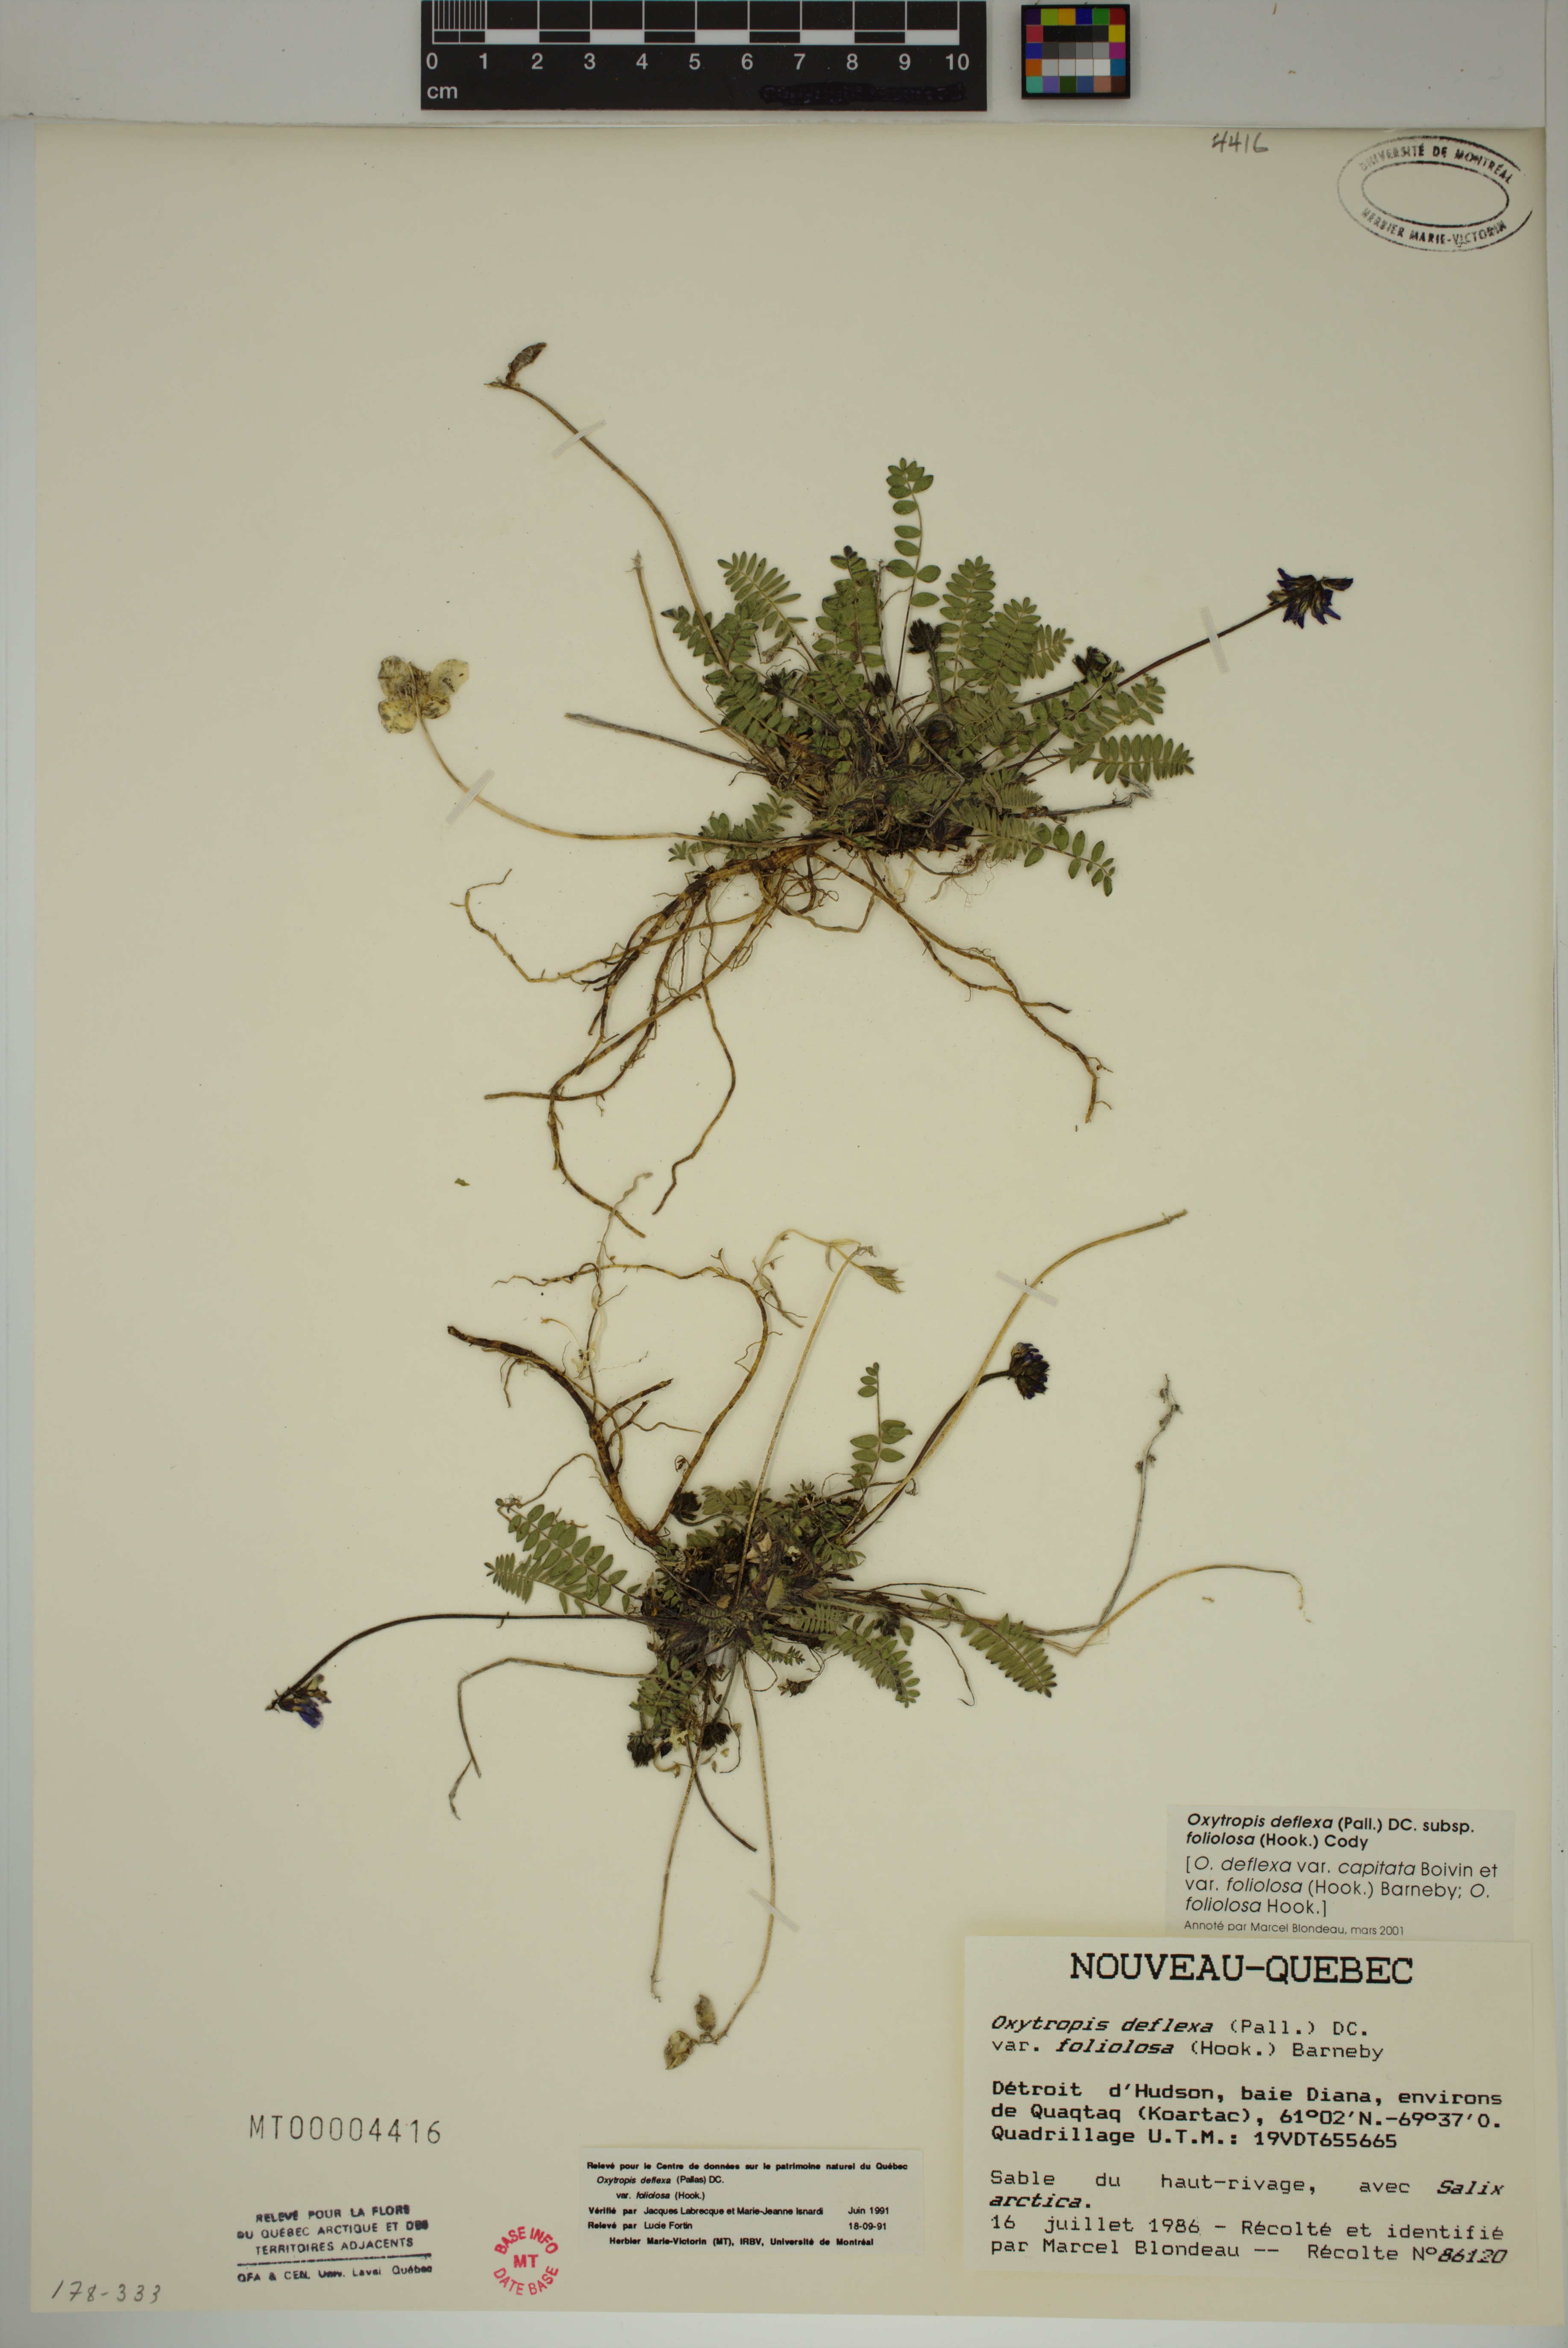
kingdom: Plantae
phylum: Tracheophyta
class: Magnoliopsida
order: Fabales
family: Fabaceae
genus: Oxytropis
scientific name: Oxytropis deflexa
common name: Stemmed oxytrope
